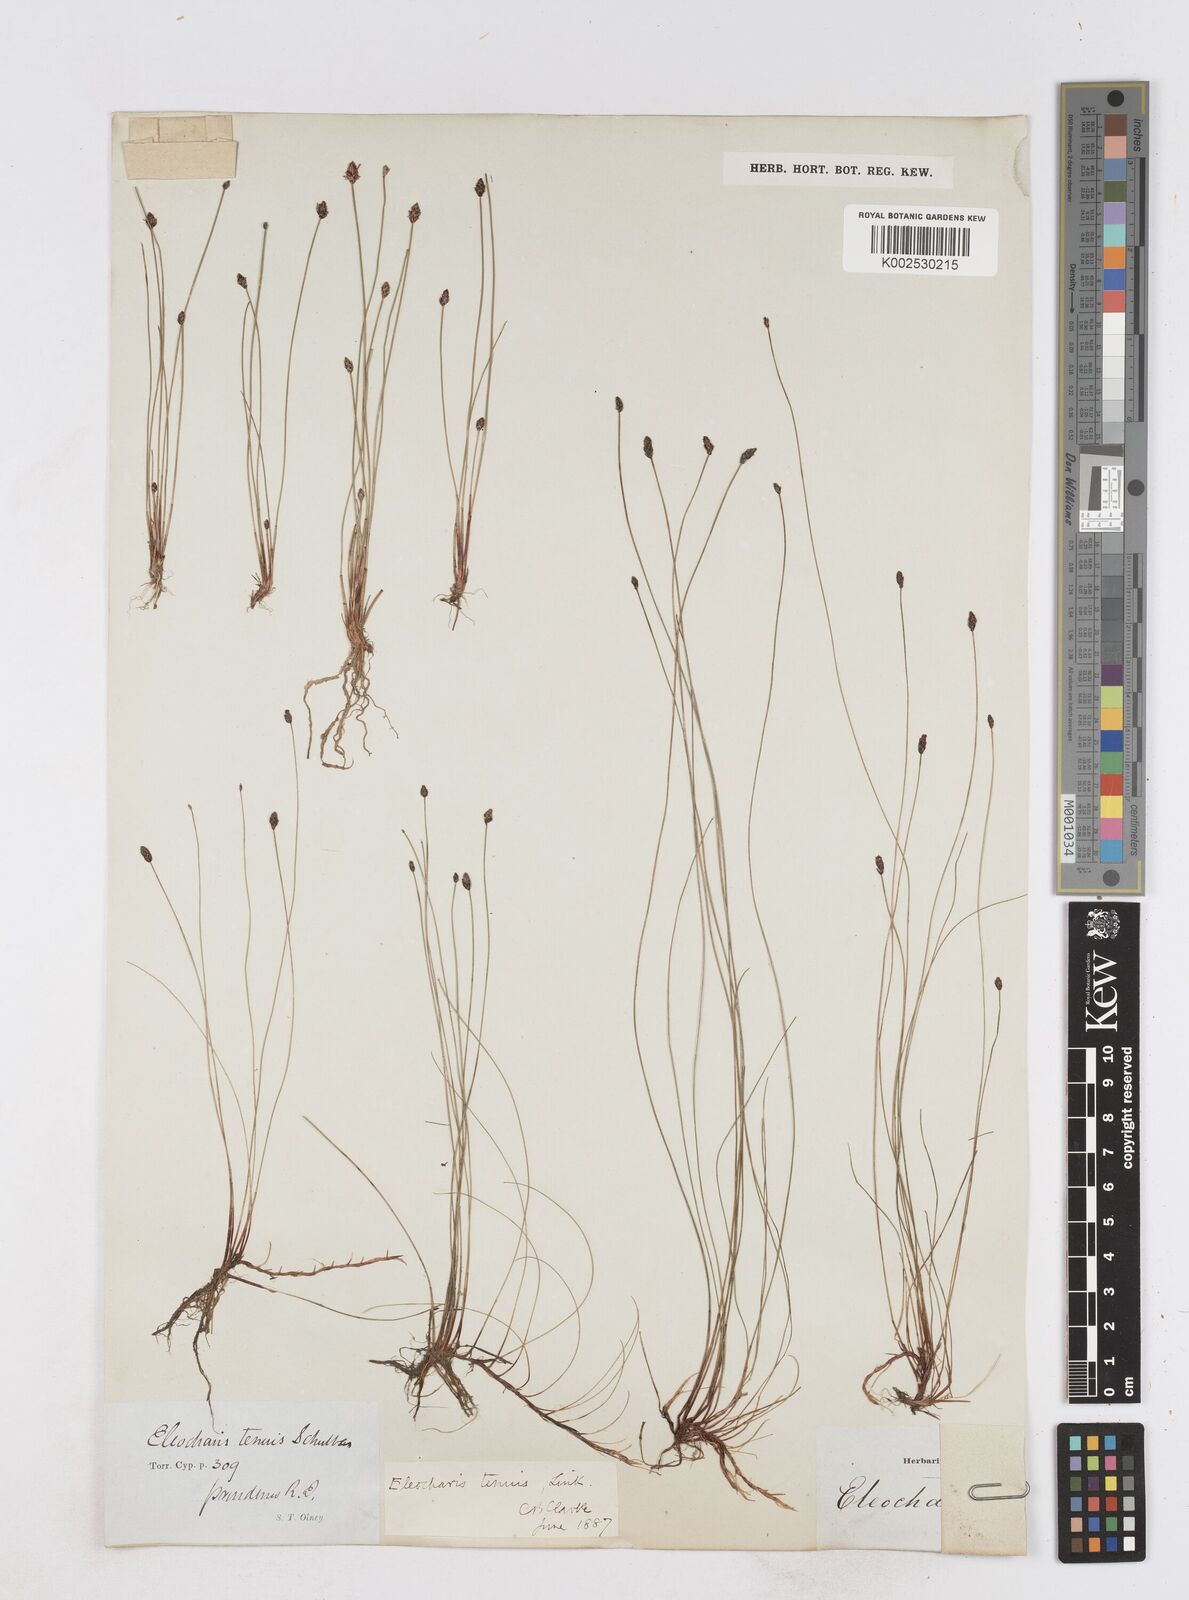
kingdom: Plantae
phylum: Tracheophyta
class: Liliopsida
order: Poales
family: Cyperaceae
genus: Eleocharis
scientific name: Eleocharis tenuis
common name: Dog's hair
